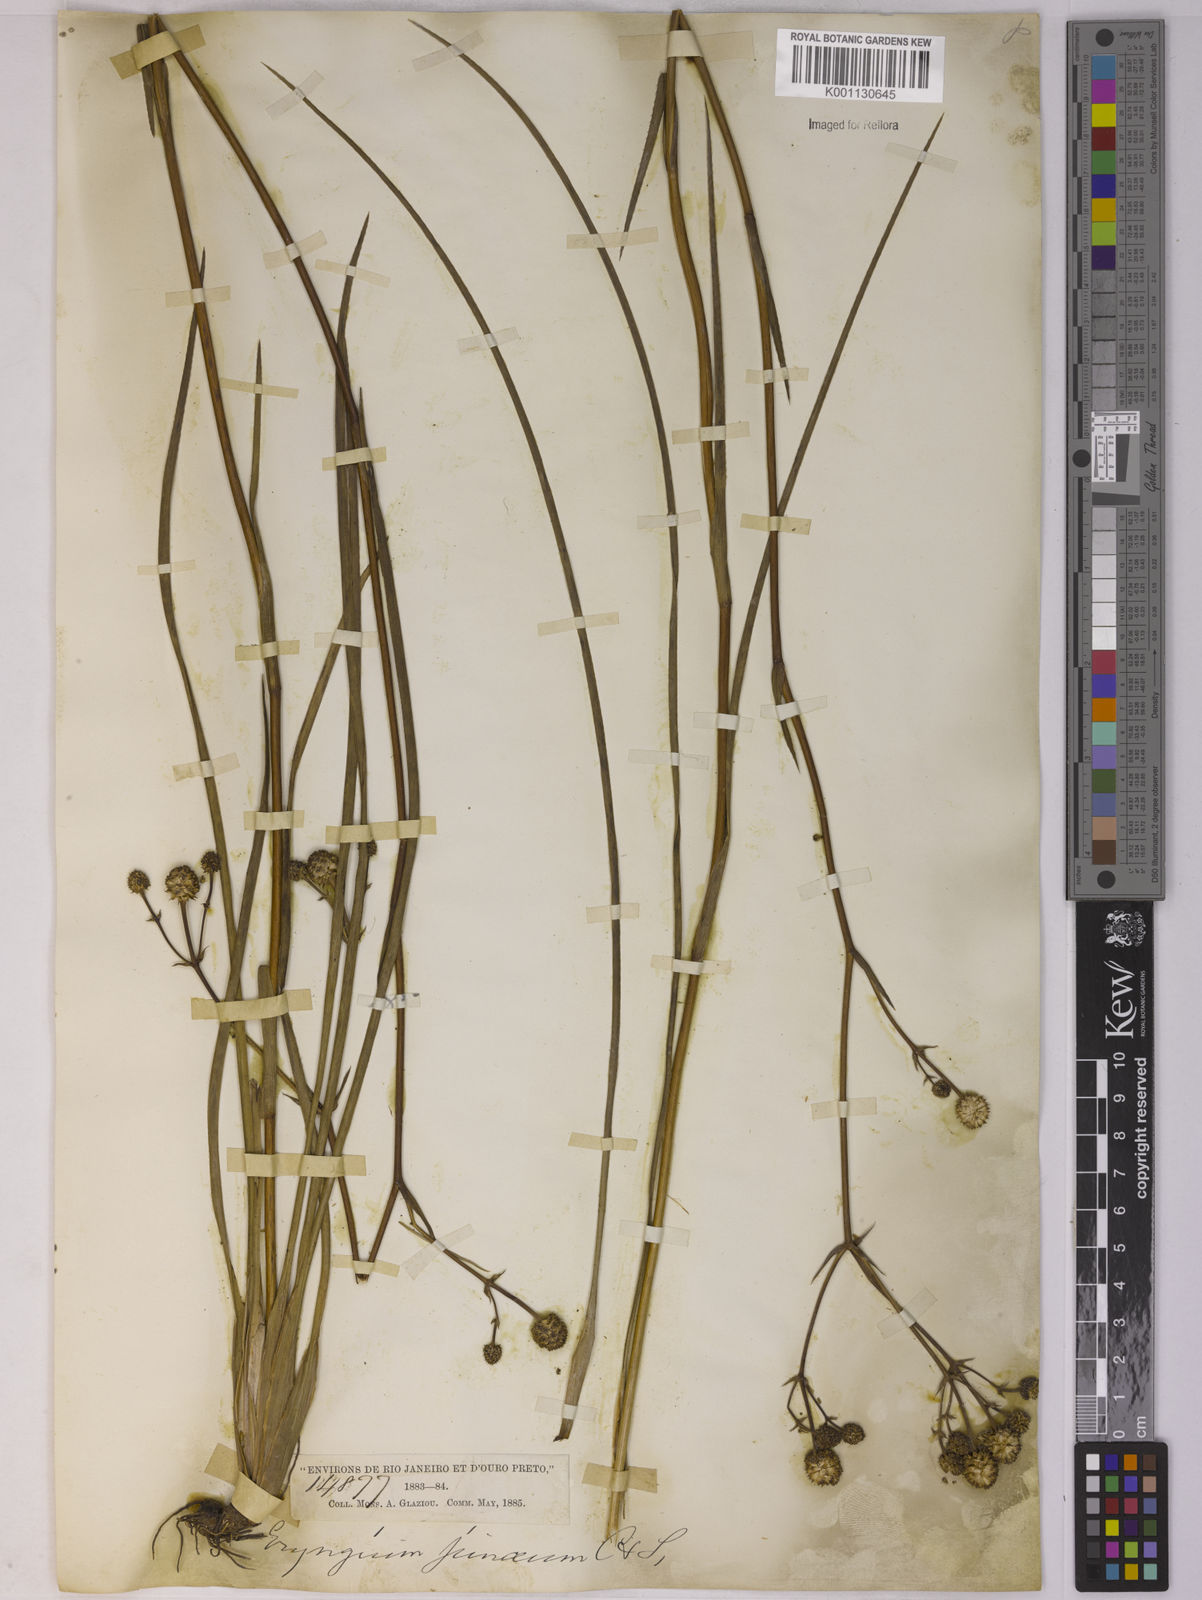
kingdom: Plantae
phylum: Tracheophyta
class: Magnoliopsida
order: Apiales
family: Apiaceae
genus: Eryngium
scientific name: Eryngium pohlianum
